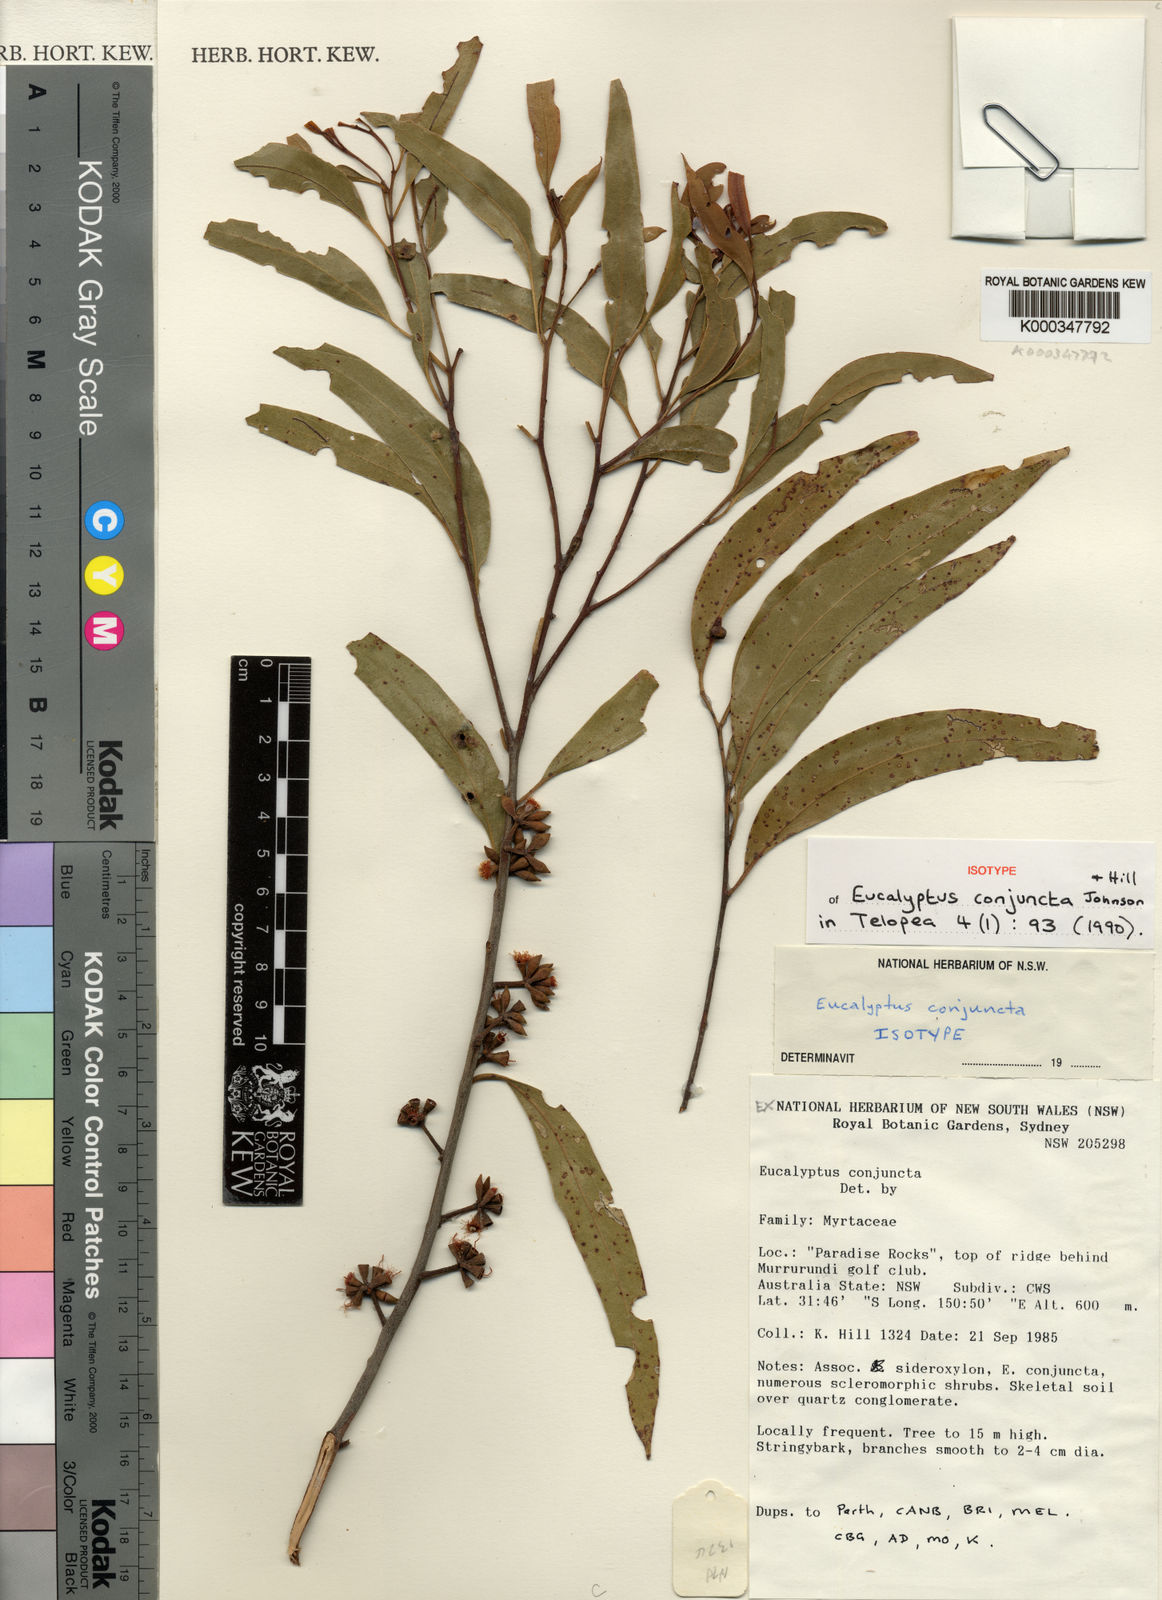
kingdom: Plantae
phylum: Tracheophyta
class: Magnoliopsida
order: Myrtales
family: Myrtaceae
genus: Eucalyptus
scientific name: Eucalyptus conjuncta
